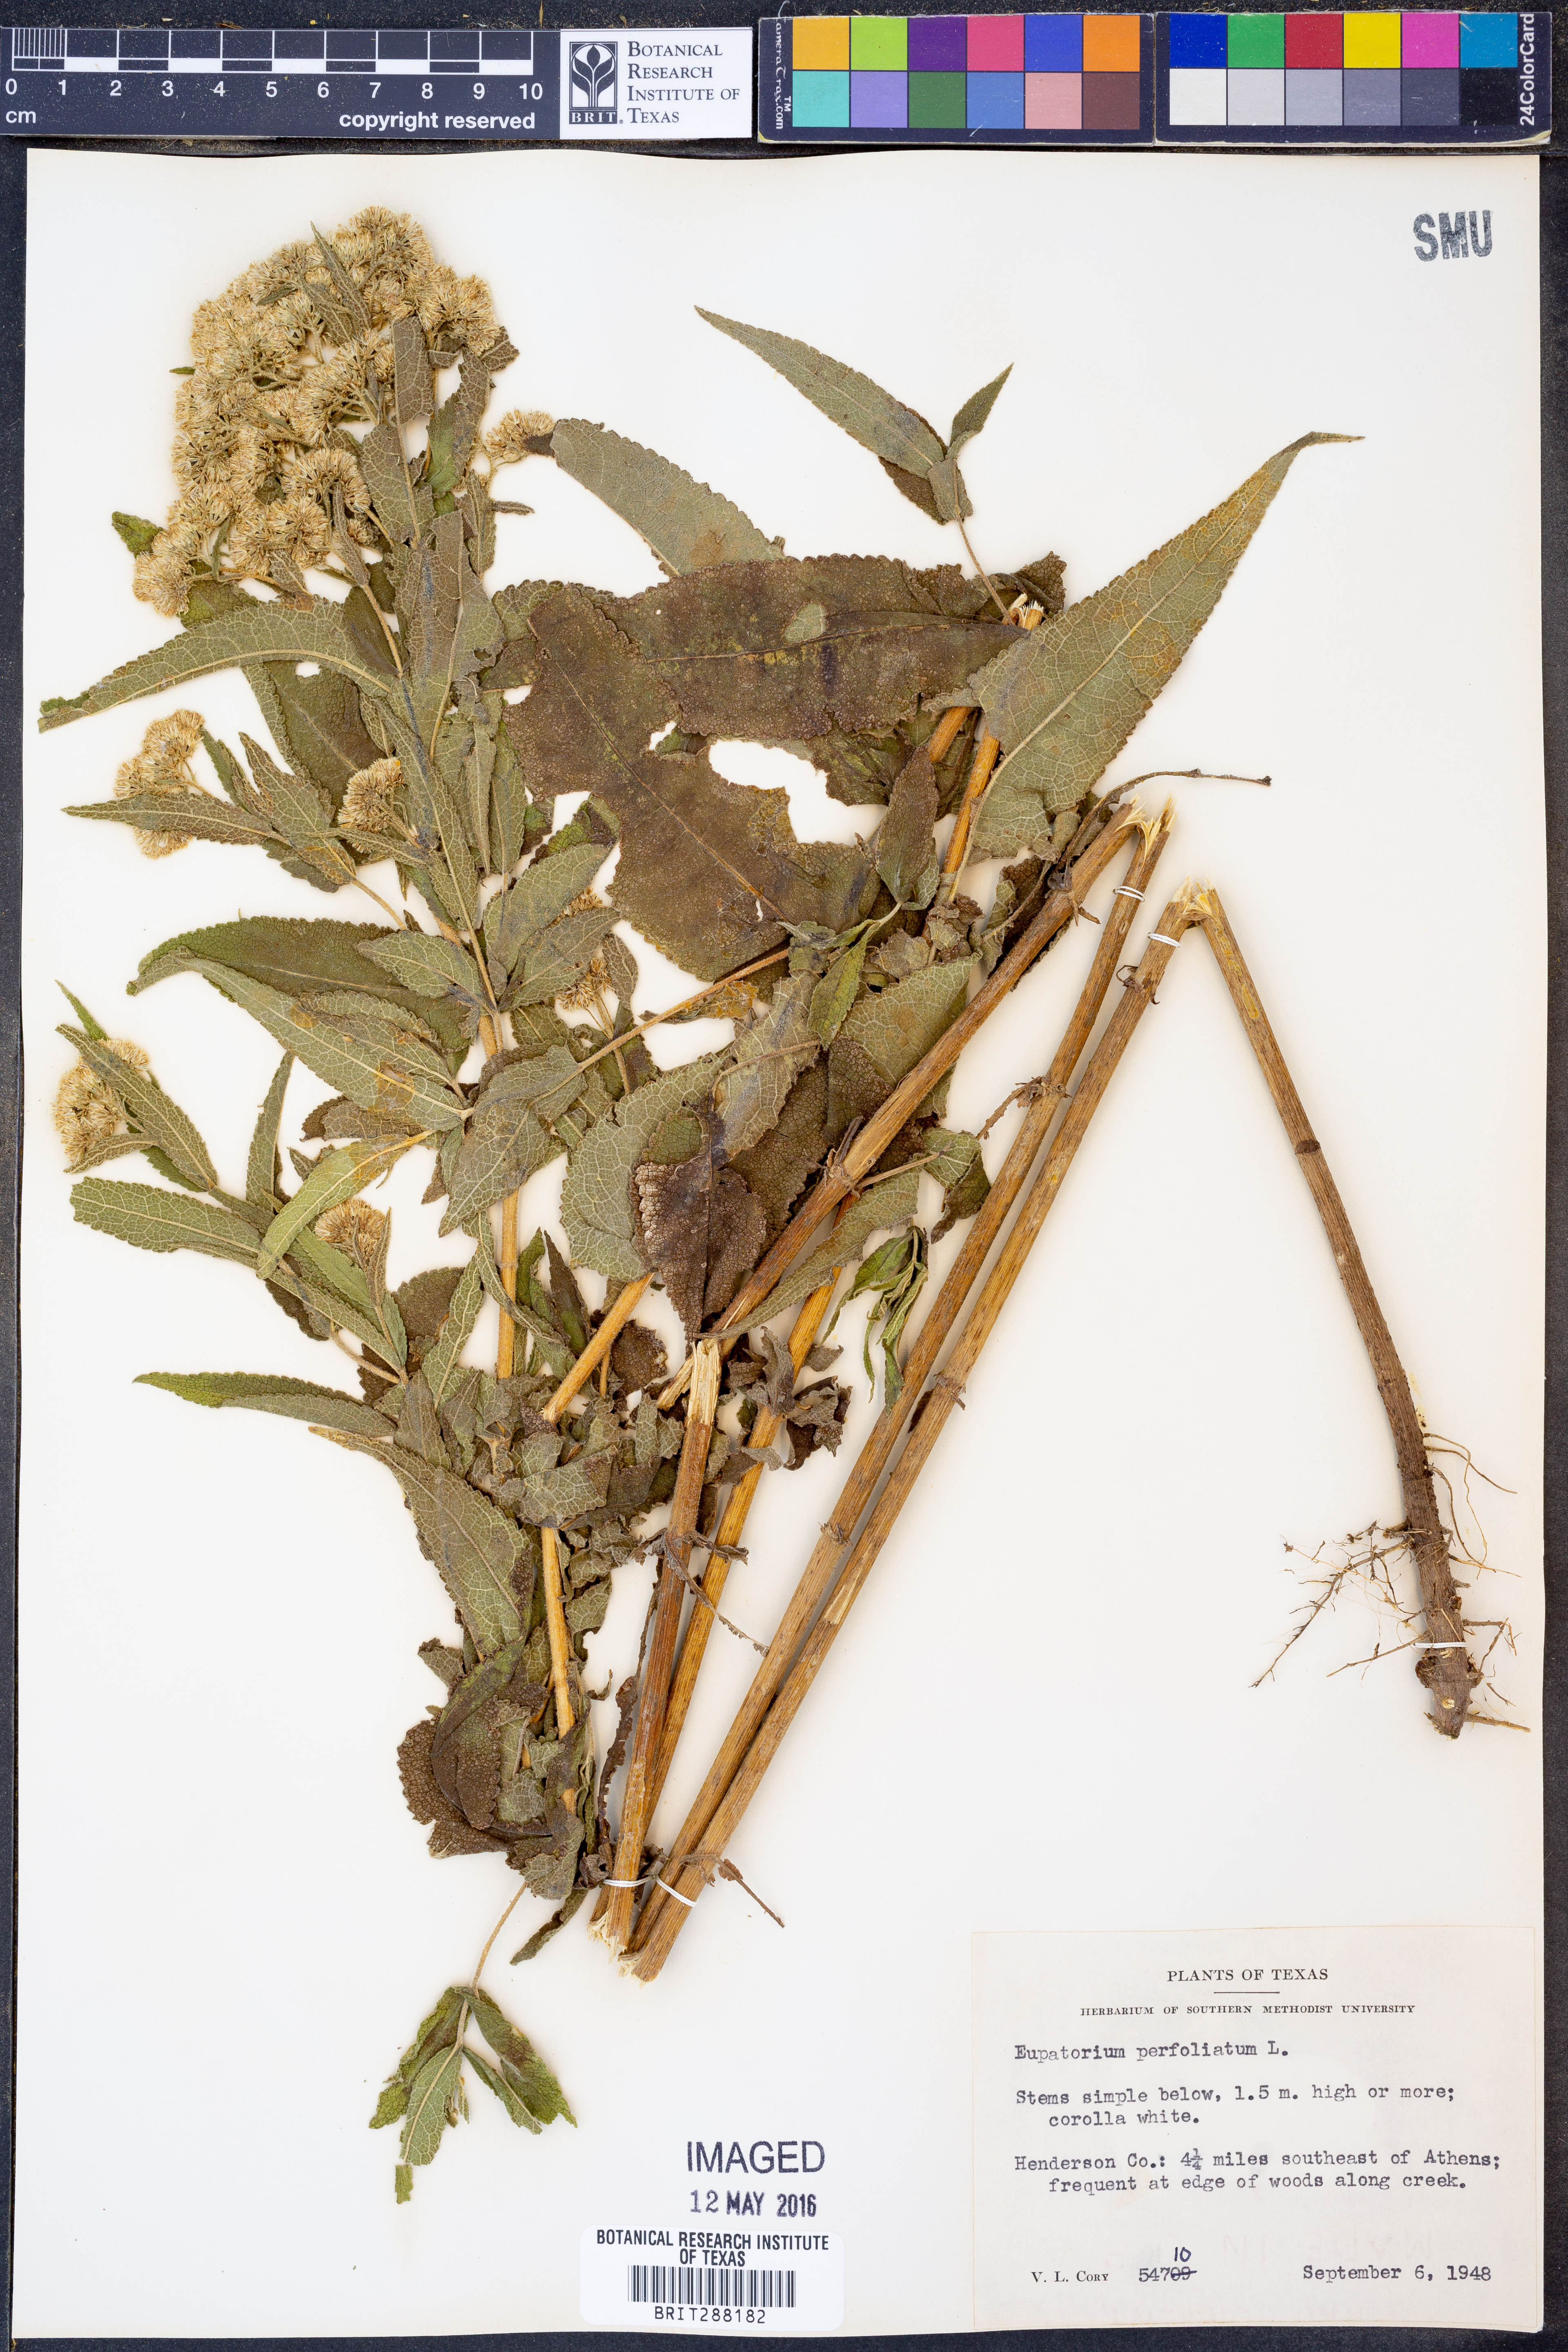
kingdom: Plantae
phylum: Tracheophyta
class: Magnoliopsida
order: Asterales
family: Asteraceae
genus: Eupatorium
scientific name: Eupatorium perfoliatum
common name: Boneset
